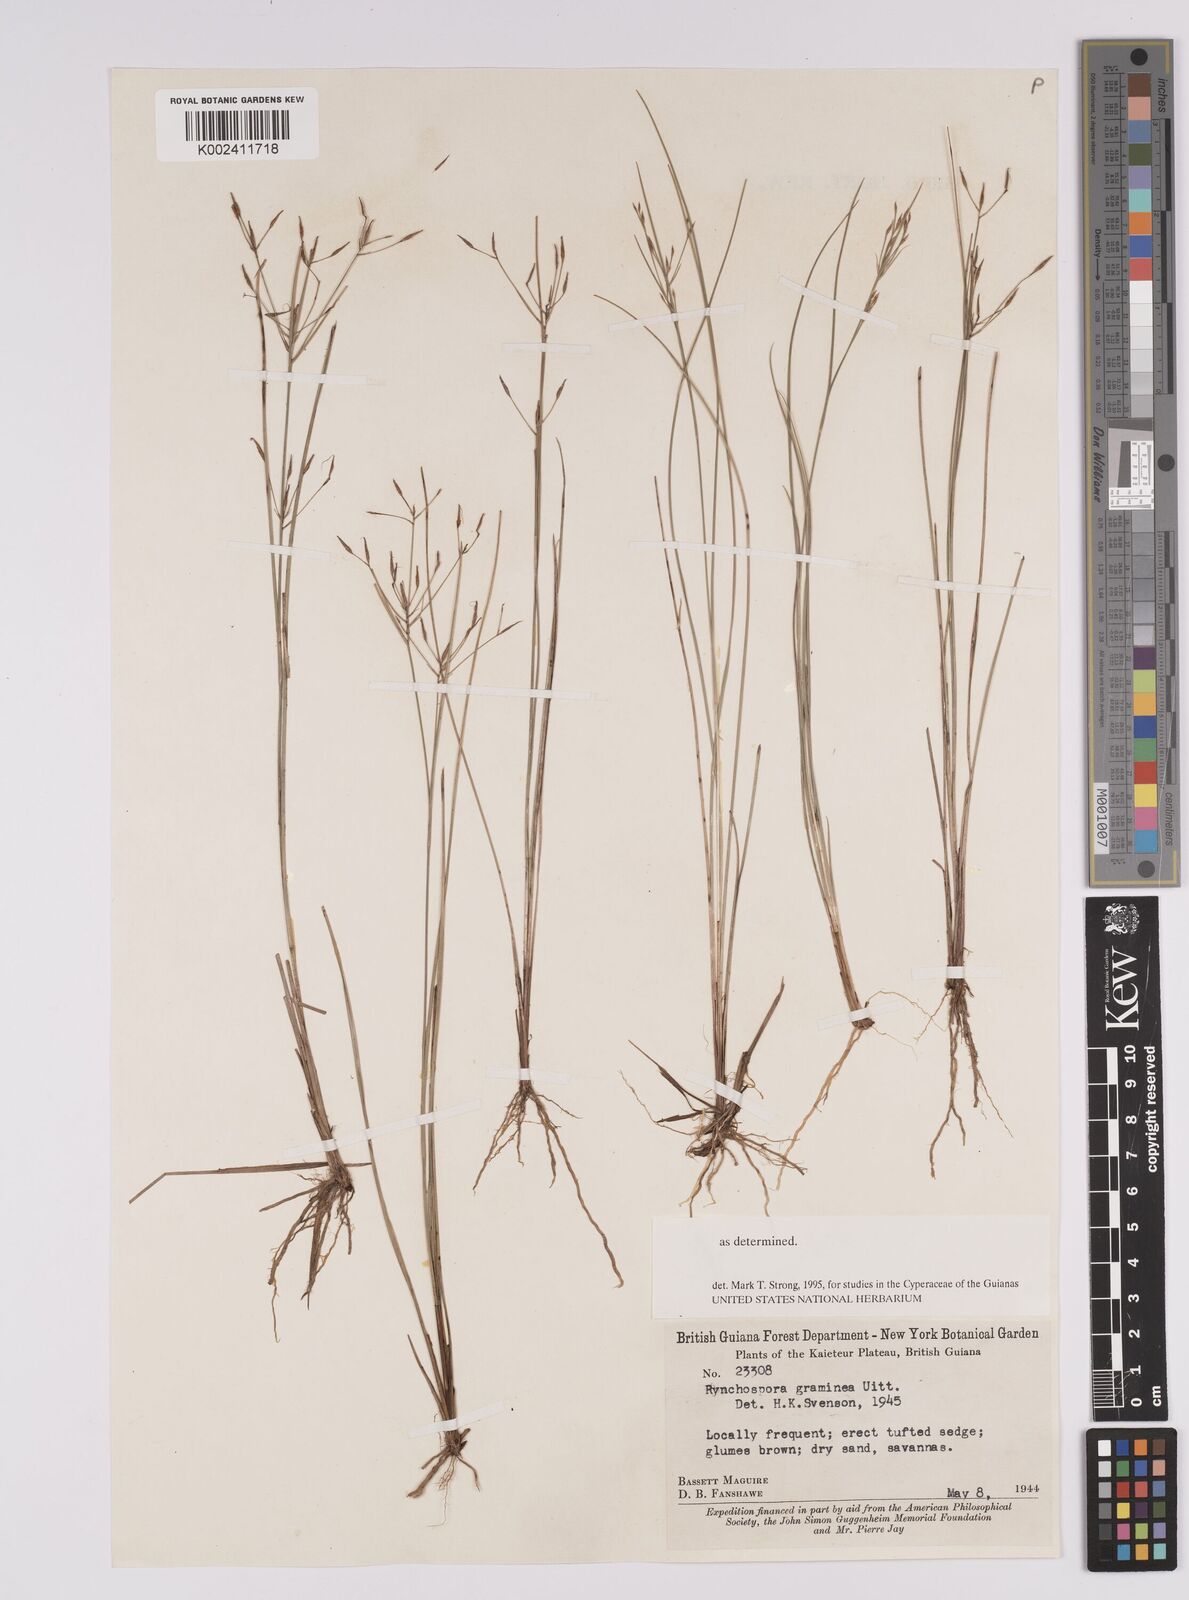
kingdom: Plantae
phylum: Tracheophyta
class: Liliopsida
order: Poales
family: Cyperaceae
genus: Rhynchospora
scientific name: Rhynchospora spruceana
